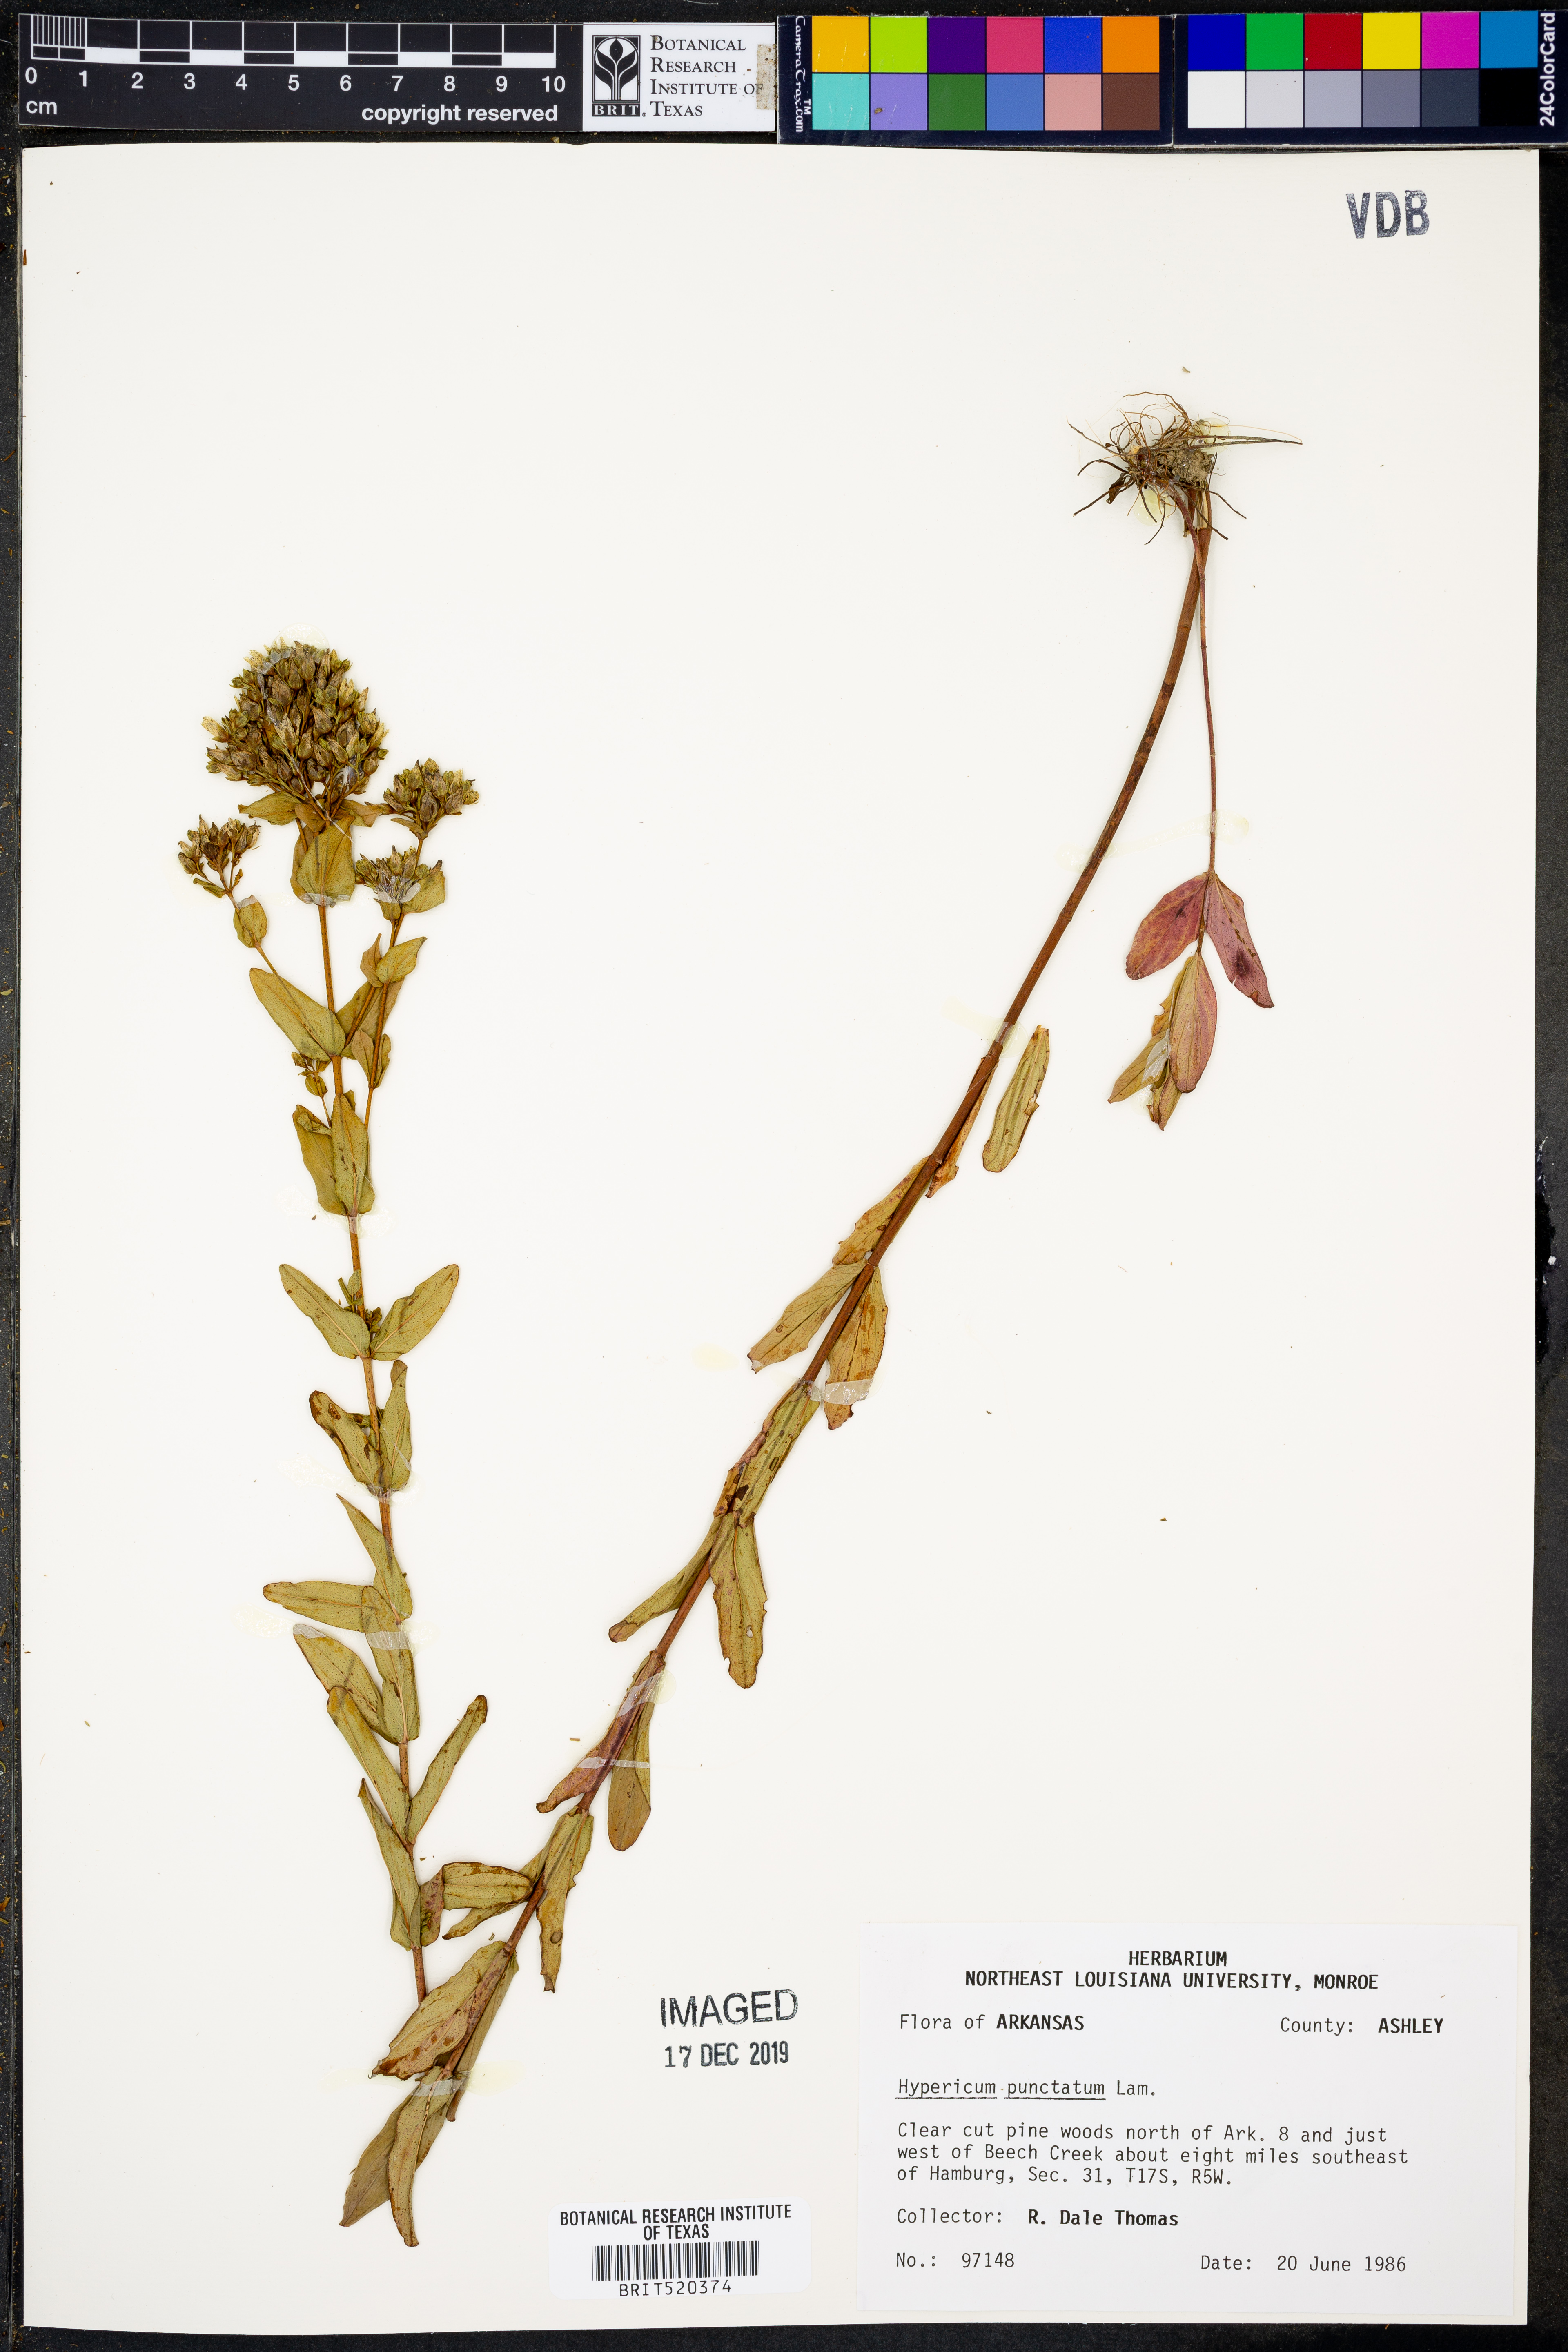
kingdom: Plantae
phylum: Tracheophyta
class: Magnoliopsida
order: Malpighiales
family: Hypericaceae
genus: Hypericum
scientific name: Hypericum punctatum
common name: Spotted st. john's-wort
